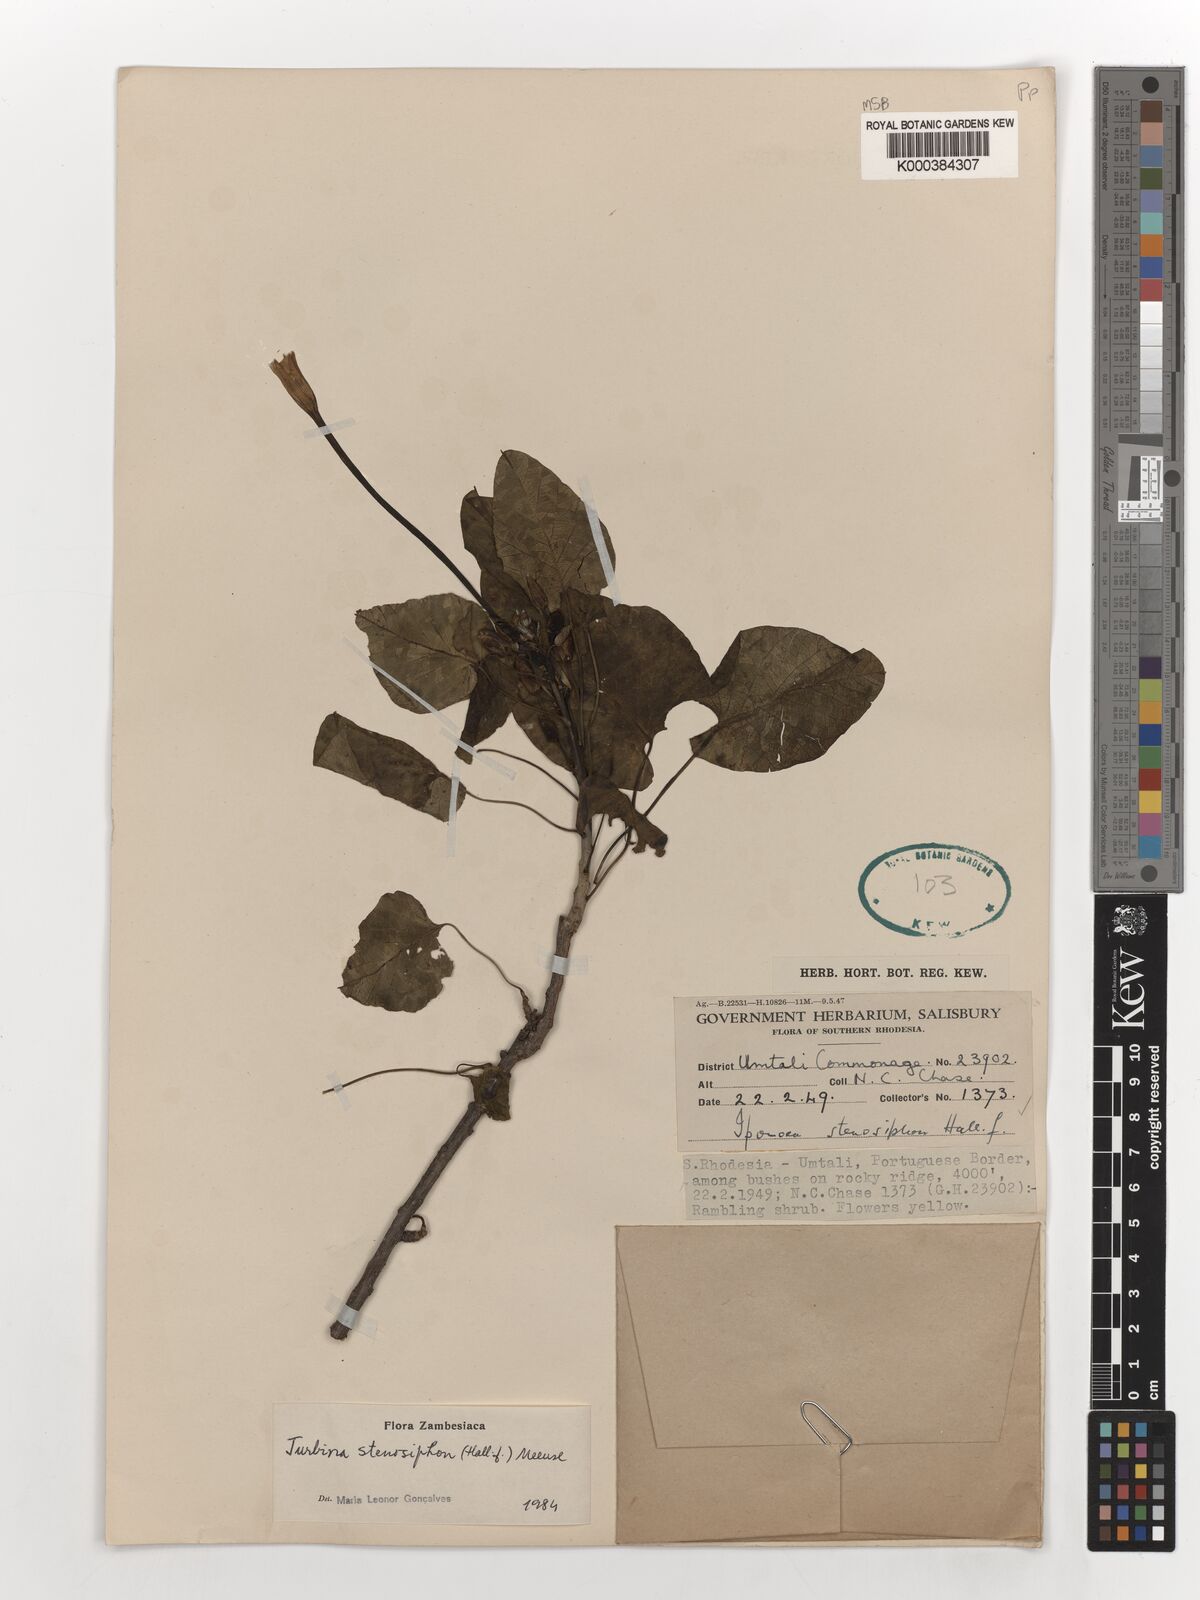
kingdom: Plantae
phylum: Tracheophyta
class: Magnoliopsida
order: Solanales
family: Convolvulaceae
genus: Ipomoea
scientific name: Ipomoea stenosiphon
